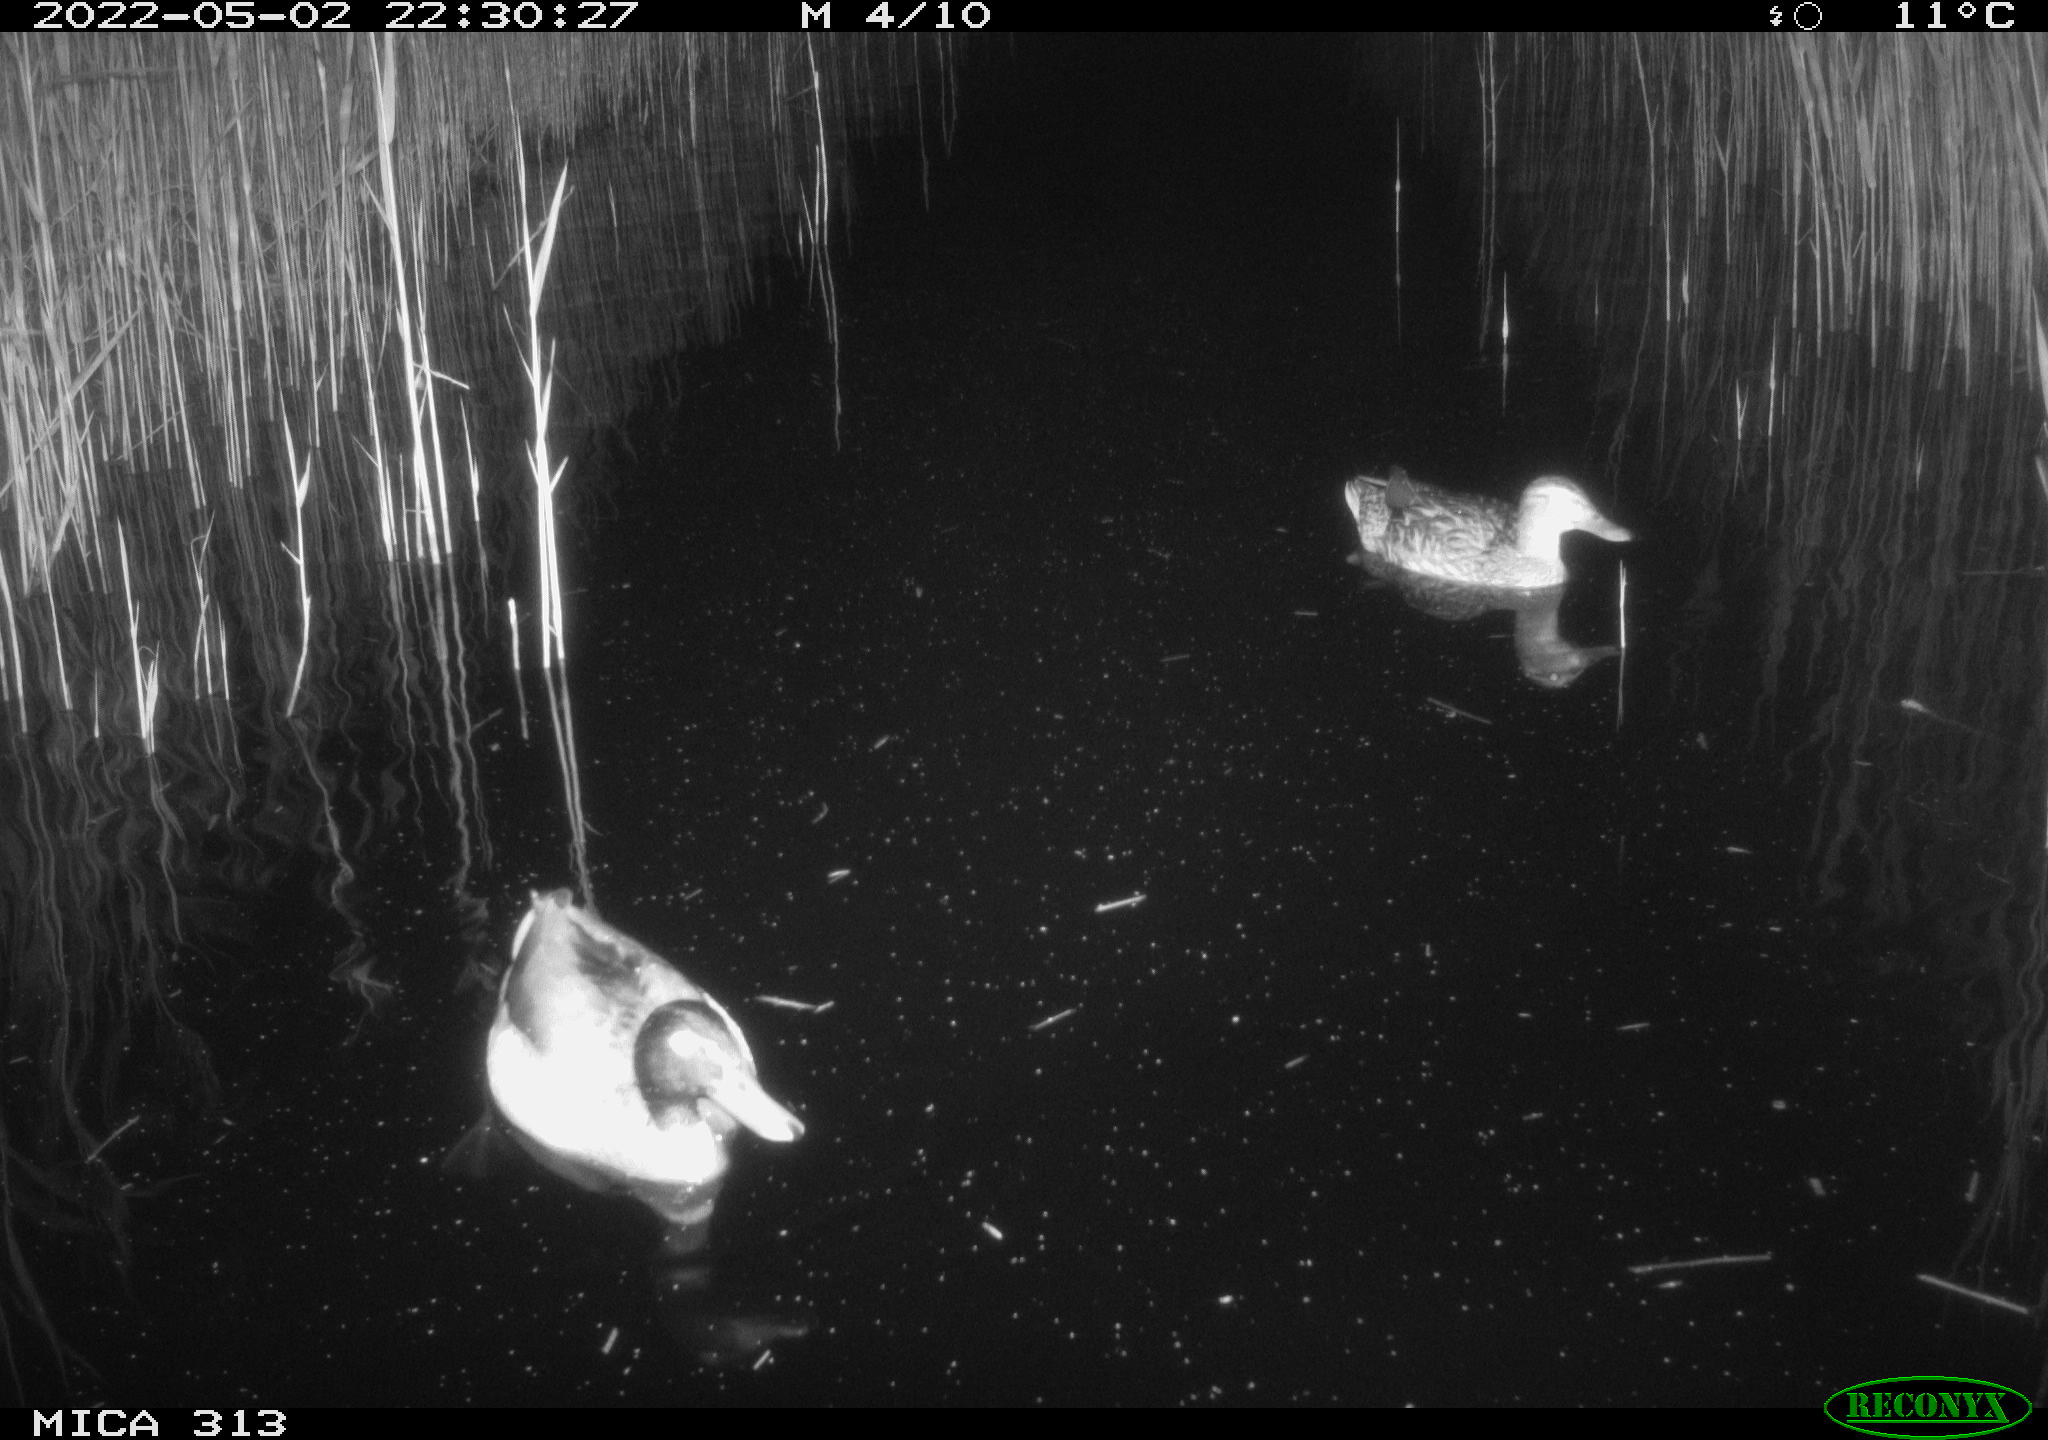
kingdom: Animalia
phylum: Chordata
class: Aves
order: Anseriformes
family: Anatidae
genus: Anas
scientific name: Anas platyrhynchos
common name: Mallard
